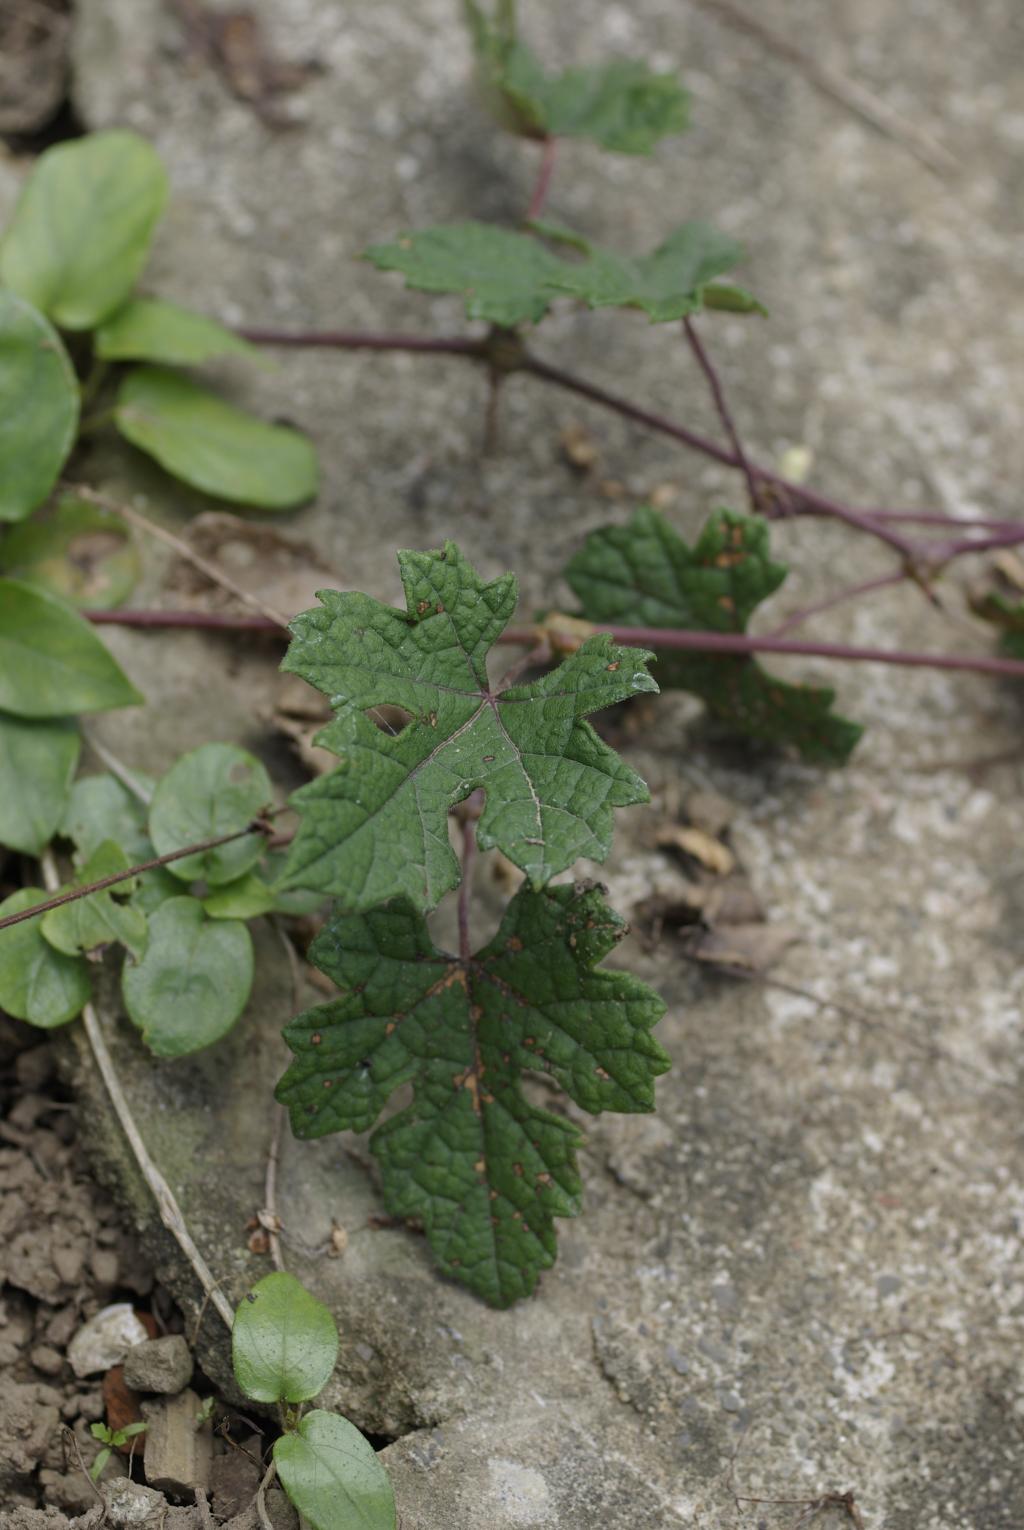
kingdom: Plantae
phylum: Tracheophyta
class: Magnoliopsida
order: Vitales
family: Vitaceae
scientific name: Vitaceae
